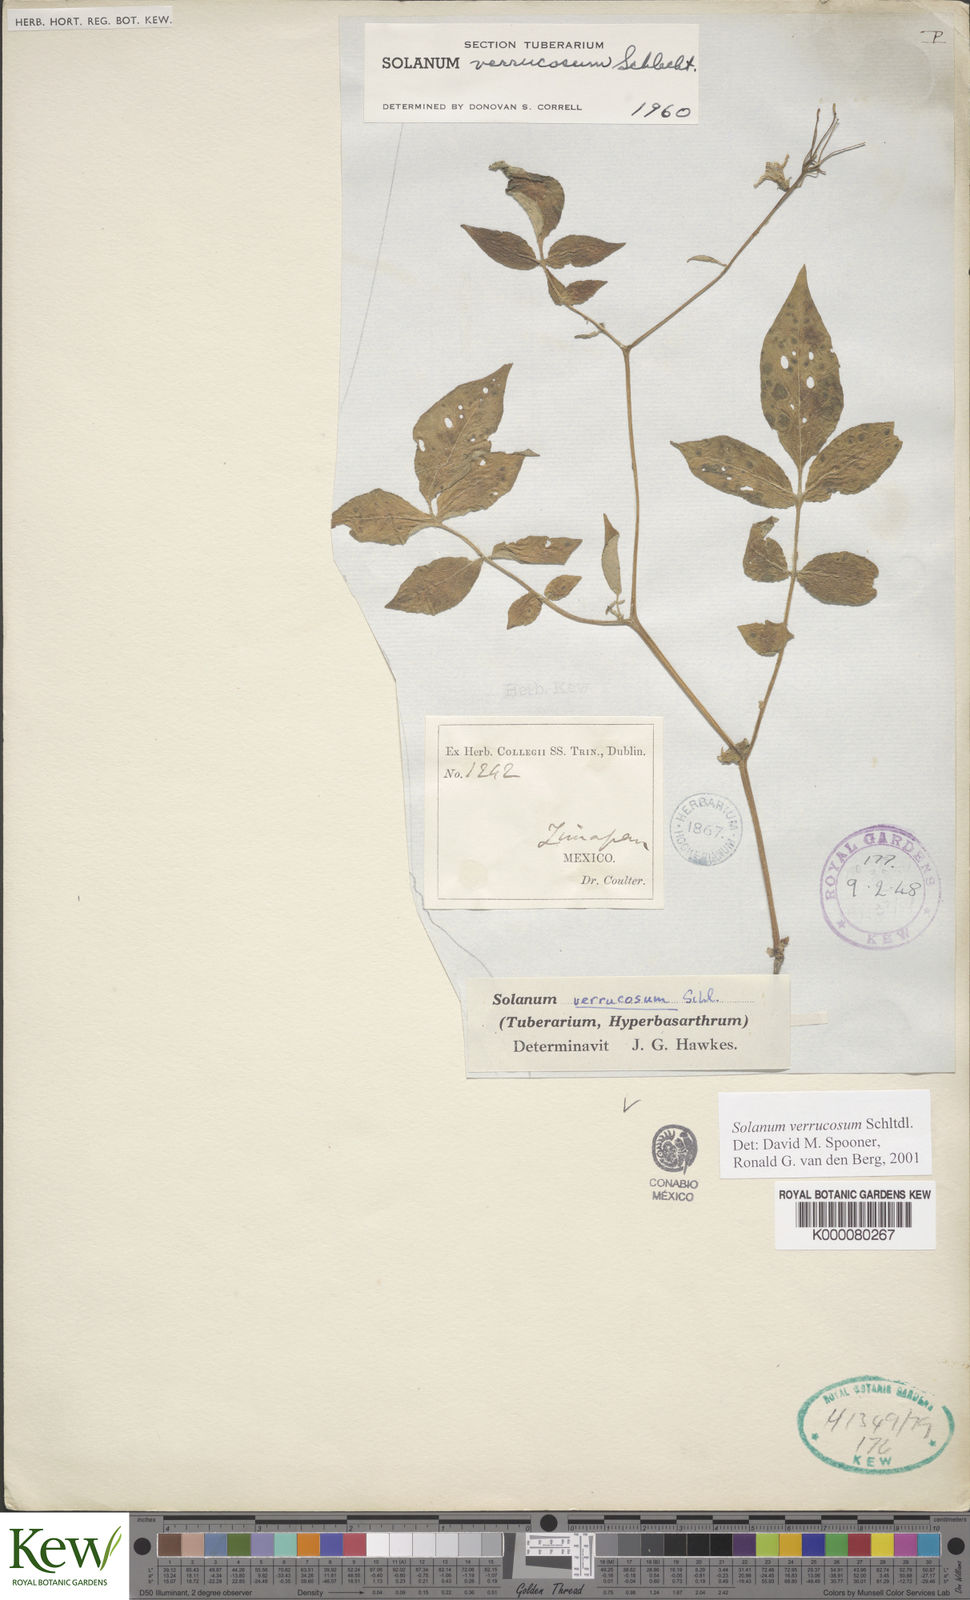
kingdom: Plantae
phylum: Tracheophyta
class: Magnoliopsida
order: Solanales
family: Solanaceae
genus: Solanum
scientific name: Solanum verrucosum
